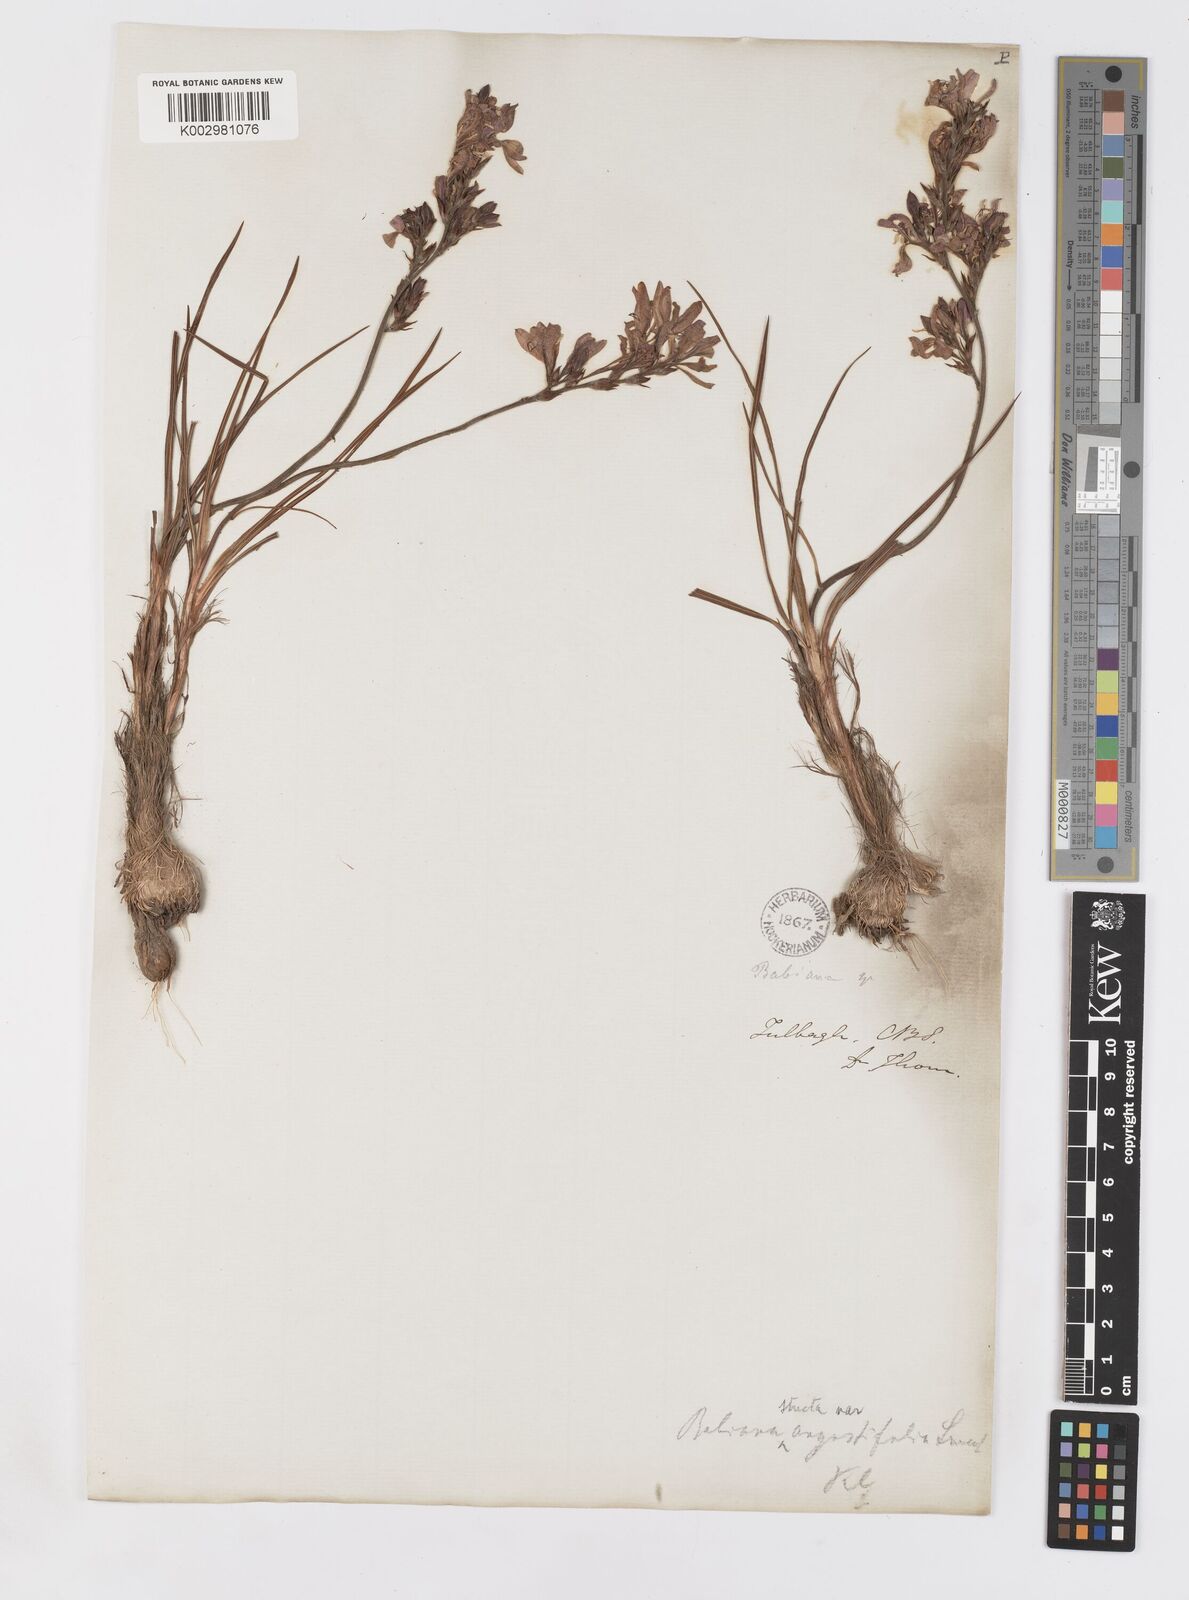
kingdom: Plantae
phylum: Tracheophyta
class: Liliopsida
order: Asparagales
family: Iridaceae
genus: Babiana
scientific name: Babiana lineolata
